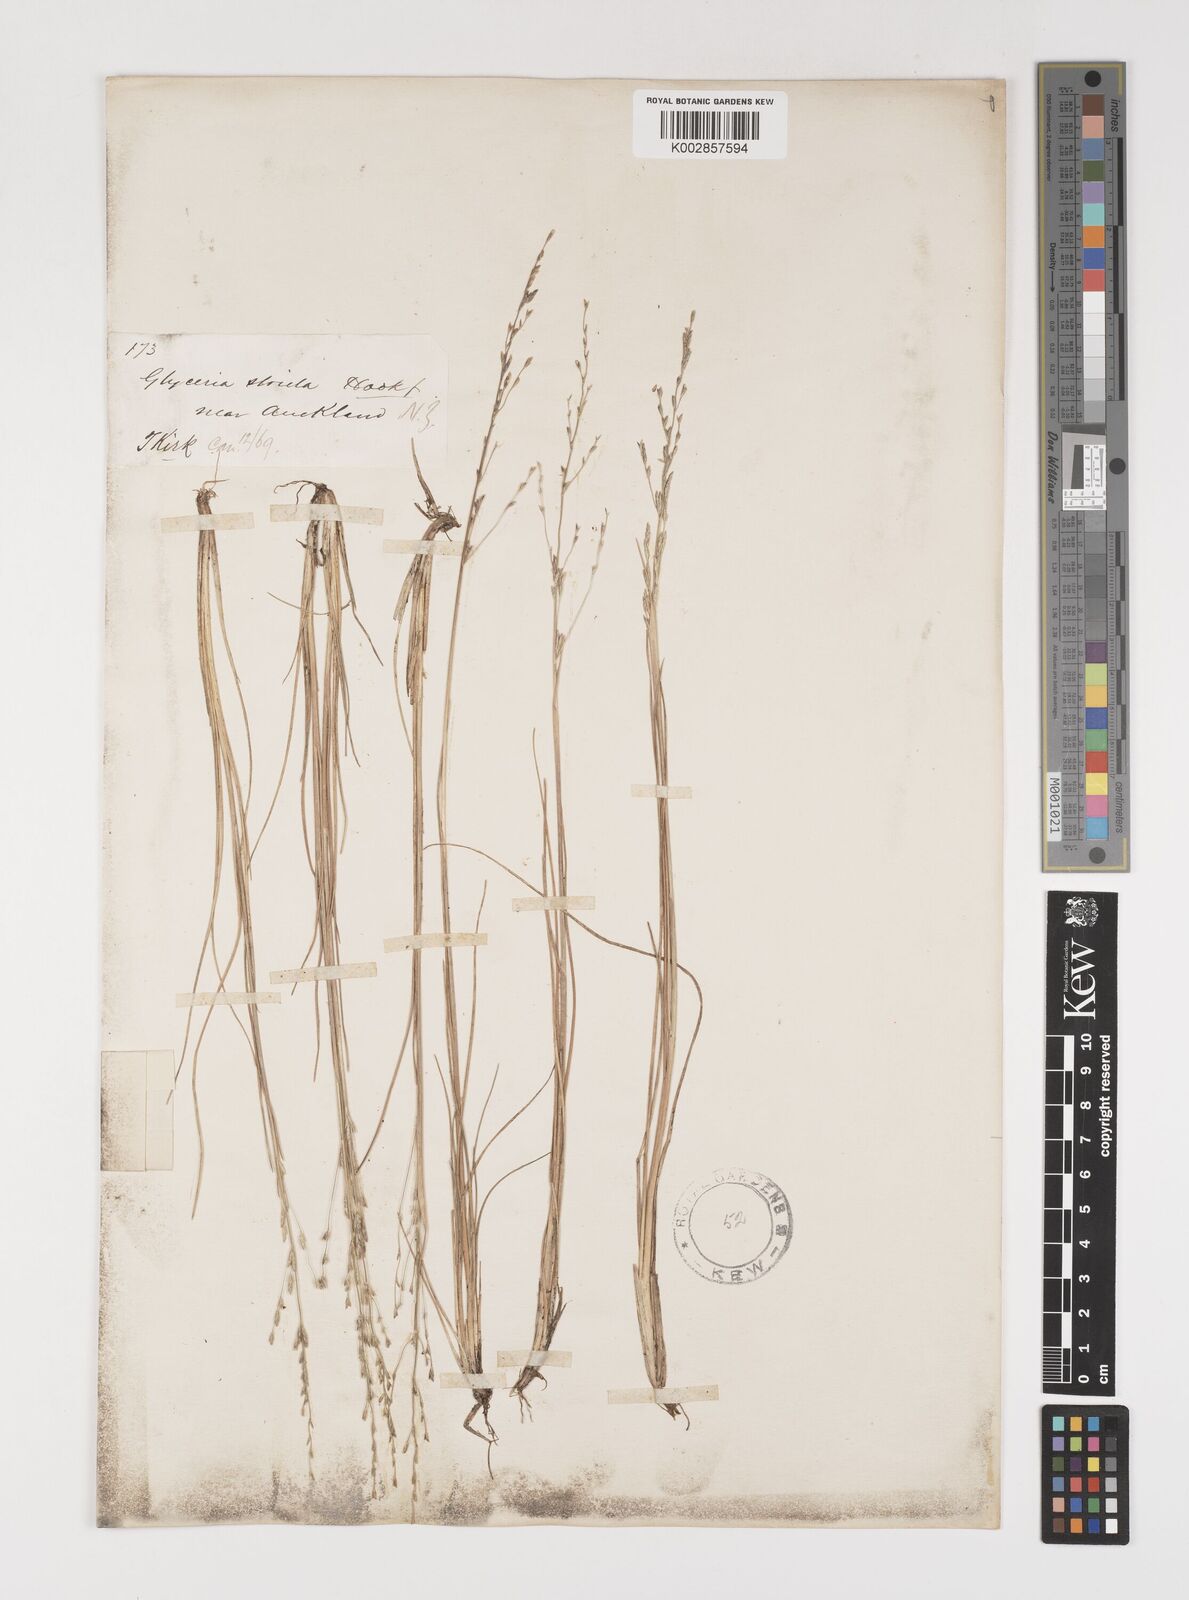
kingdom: Plantae
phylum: Tracheophyta
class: Liliopsida
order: Poales
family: Poaceae
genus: Sclerochloa
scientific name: Sclerochloa kengiana
